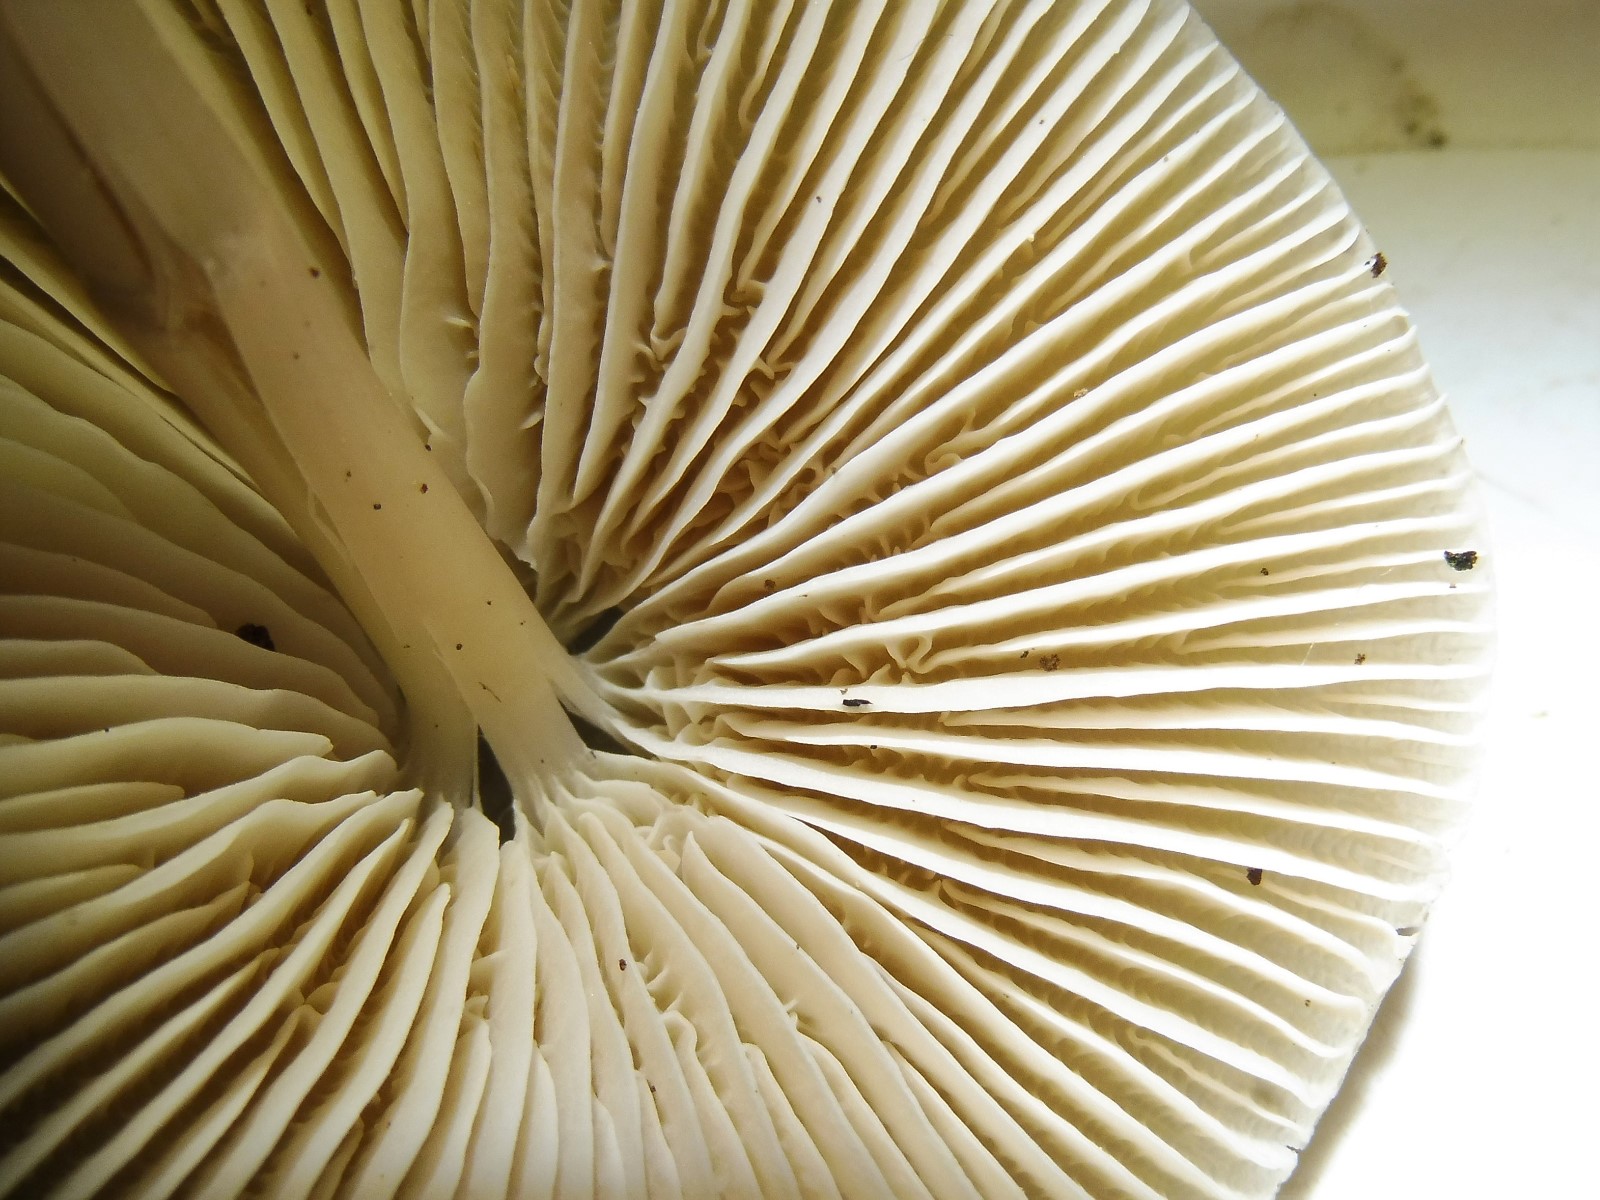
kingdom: Fungi
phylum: Basidiomycota
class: Agaricomycetes
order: Agaricales
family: Mycenaceae
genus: Mycena
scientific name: Mycena galericulata
